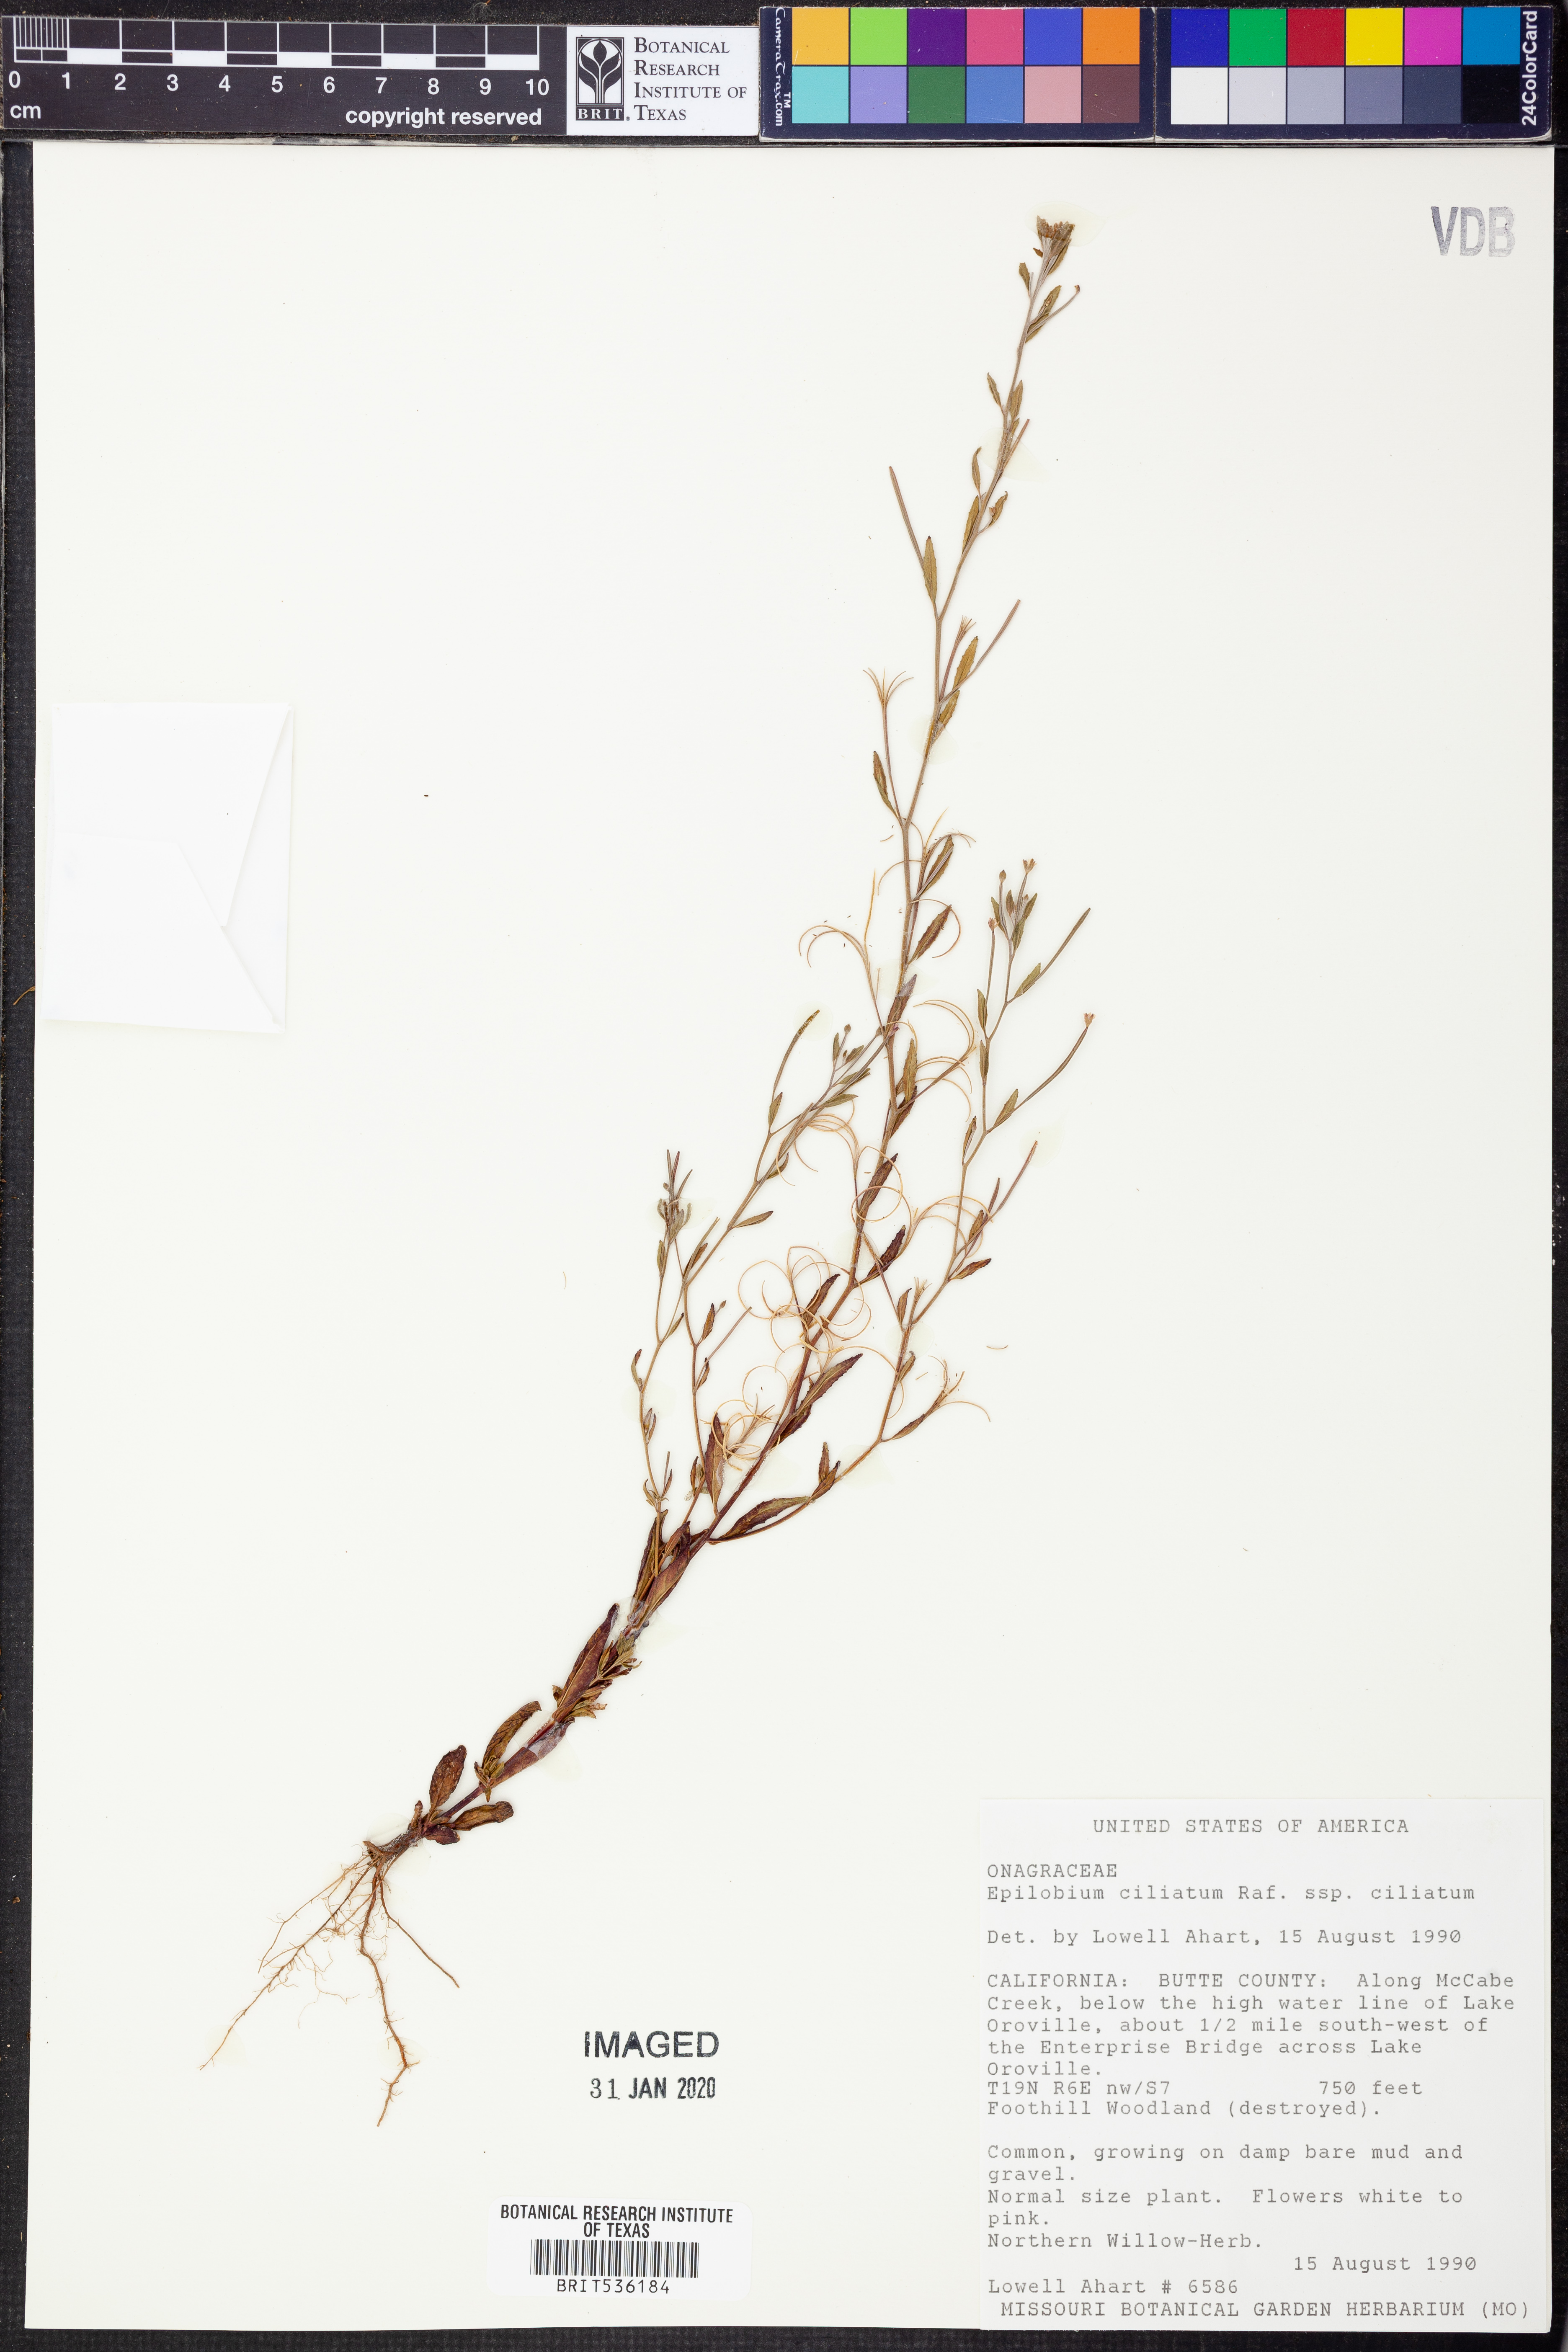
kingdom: Plantae
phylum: Tracheophyta
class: Magnoliopsida
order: Myrtales
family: Onagraceae
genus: Epilobium
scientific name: Epilobium ciliatum
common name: American willowherb
